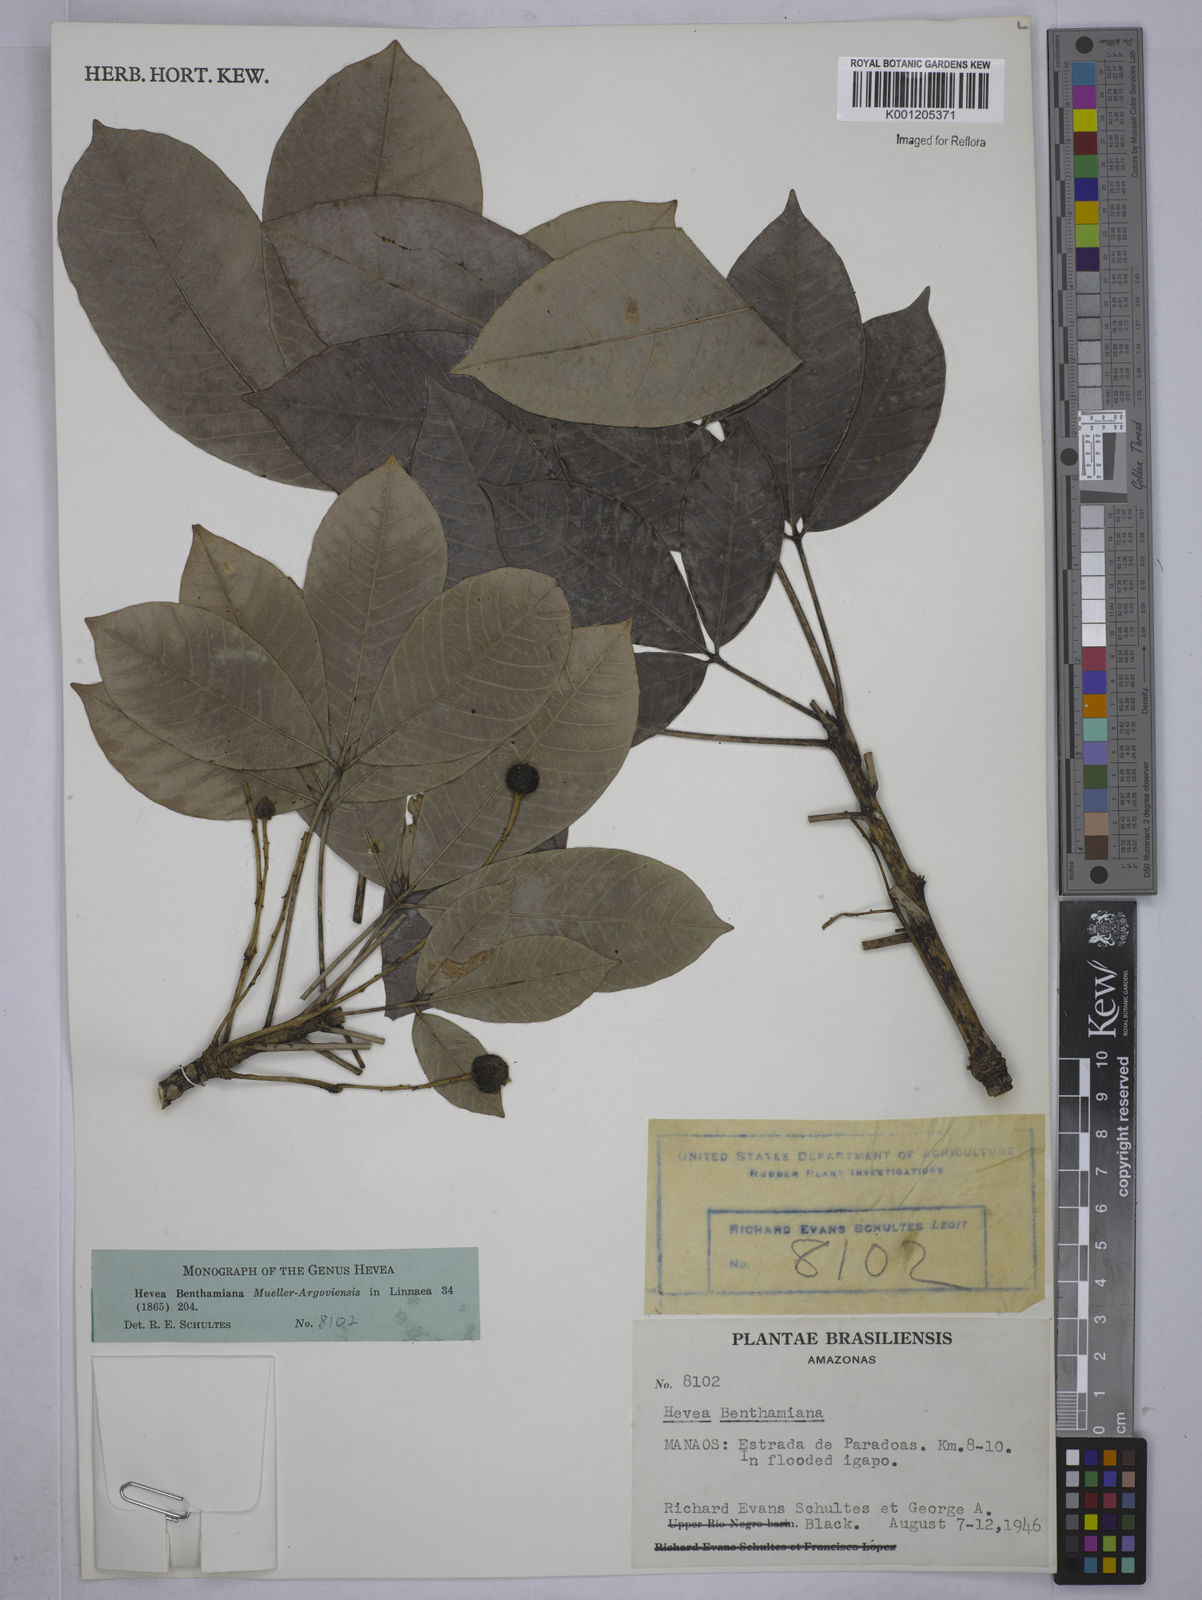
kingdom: Plantae
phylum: Tracheophyta
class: Magnoliopsida
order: Malpighiales
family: Euphorbiaceae
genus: Hevea
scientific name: Hevea
